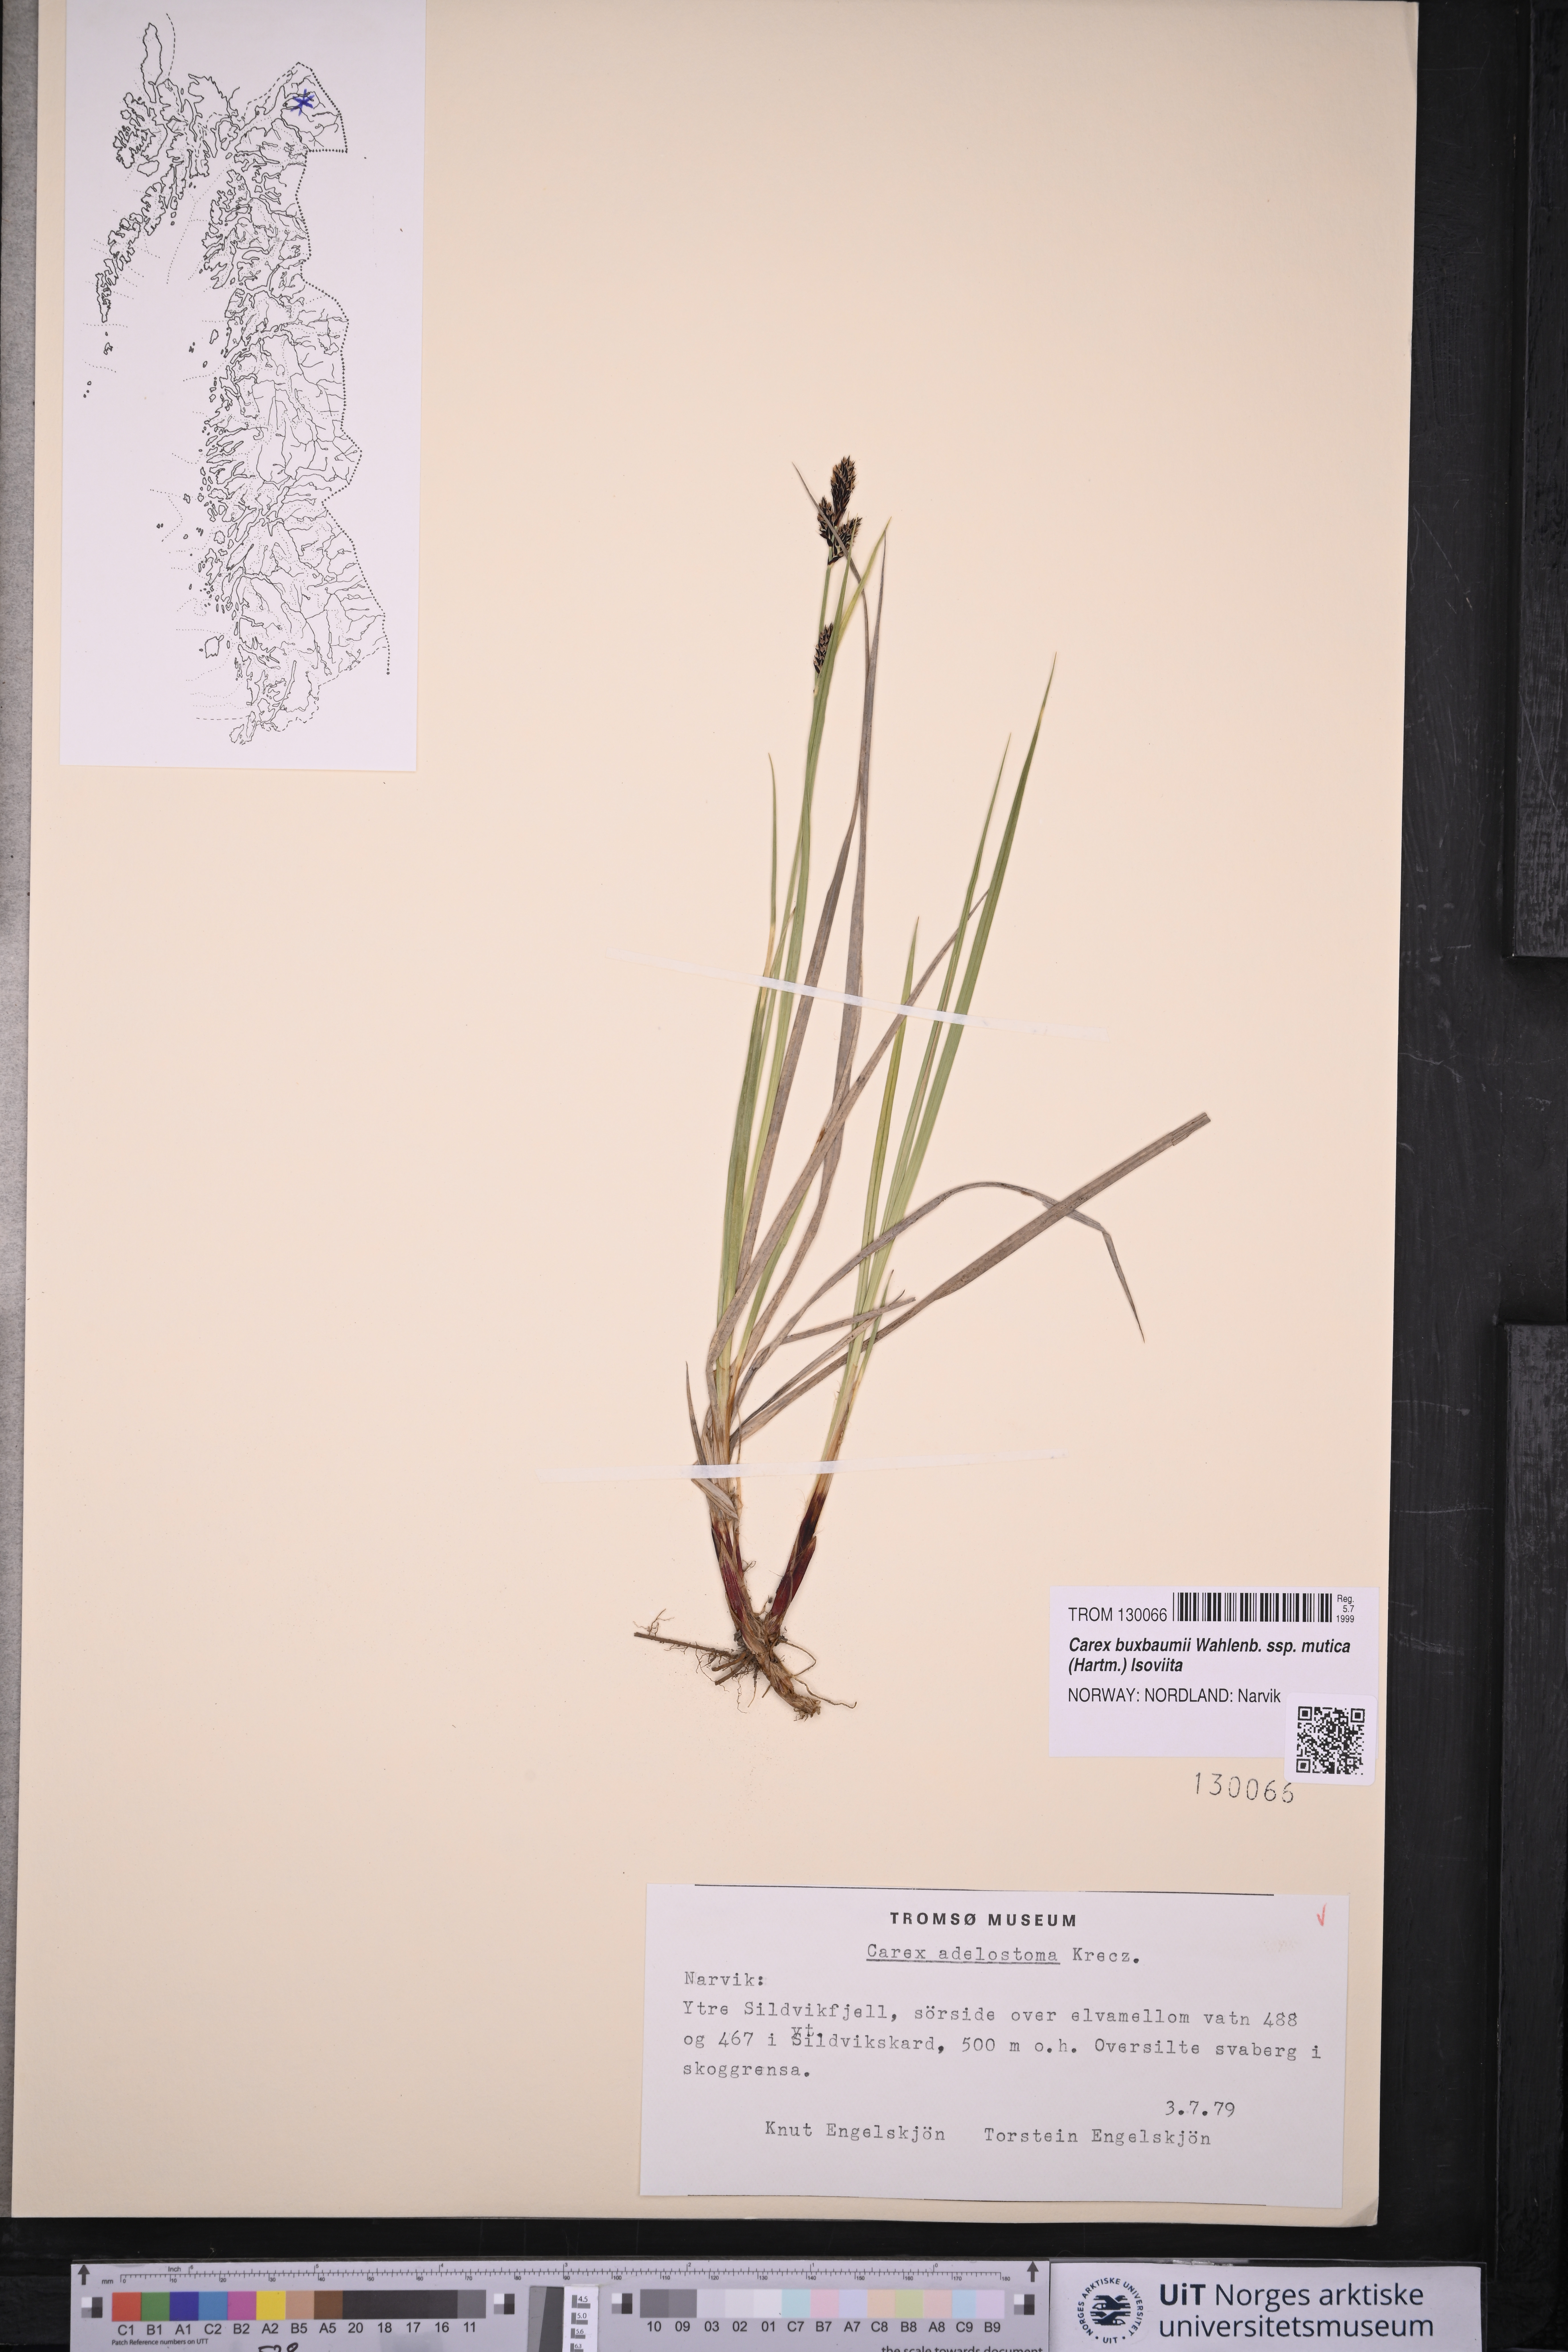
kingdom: Plantae
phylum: Tracheophyta
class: Liliopsida
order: Poales
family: Cyperaceae
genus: Carex
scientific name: Carex adelostoma
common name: Circumpolar sedge
